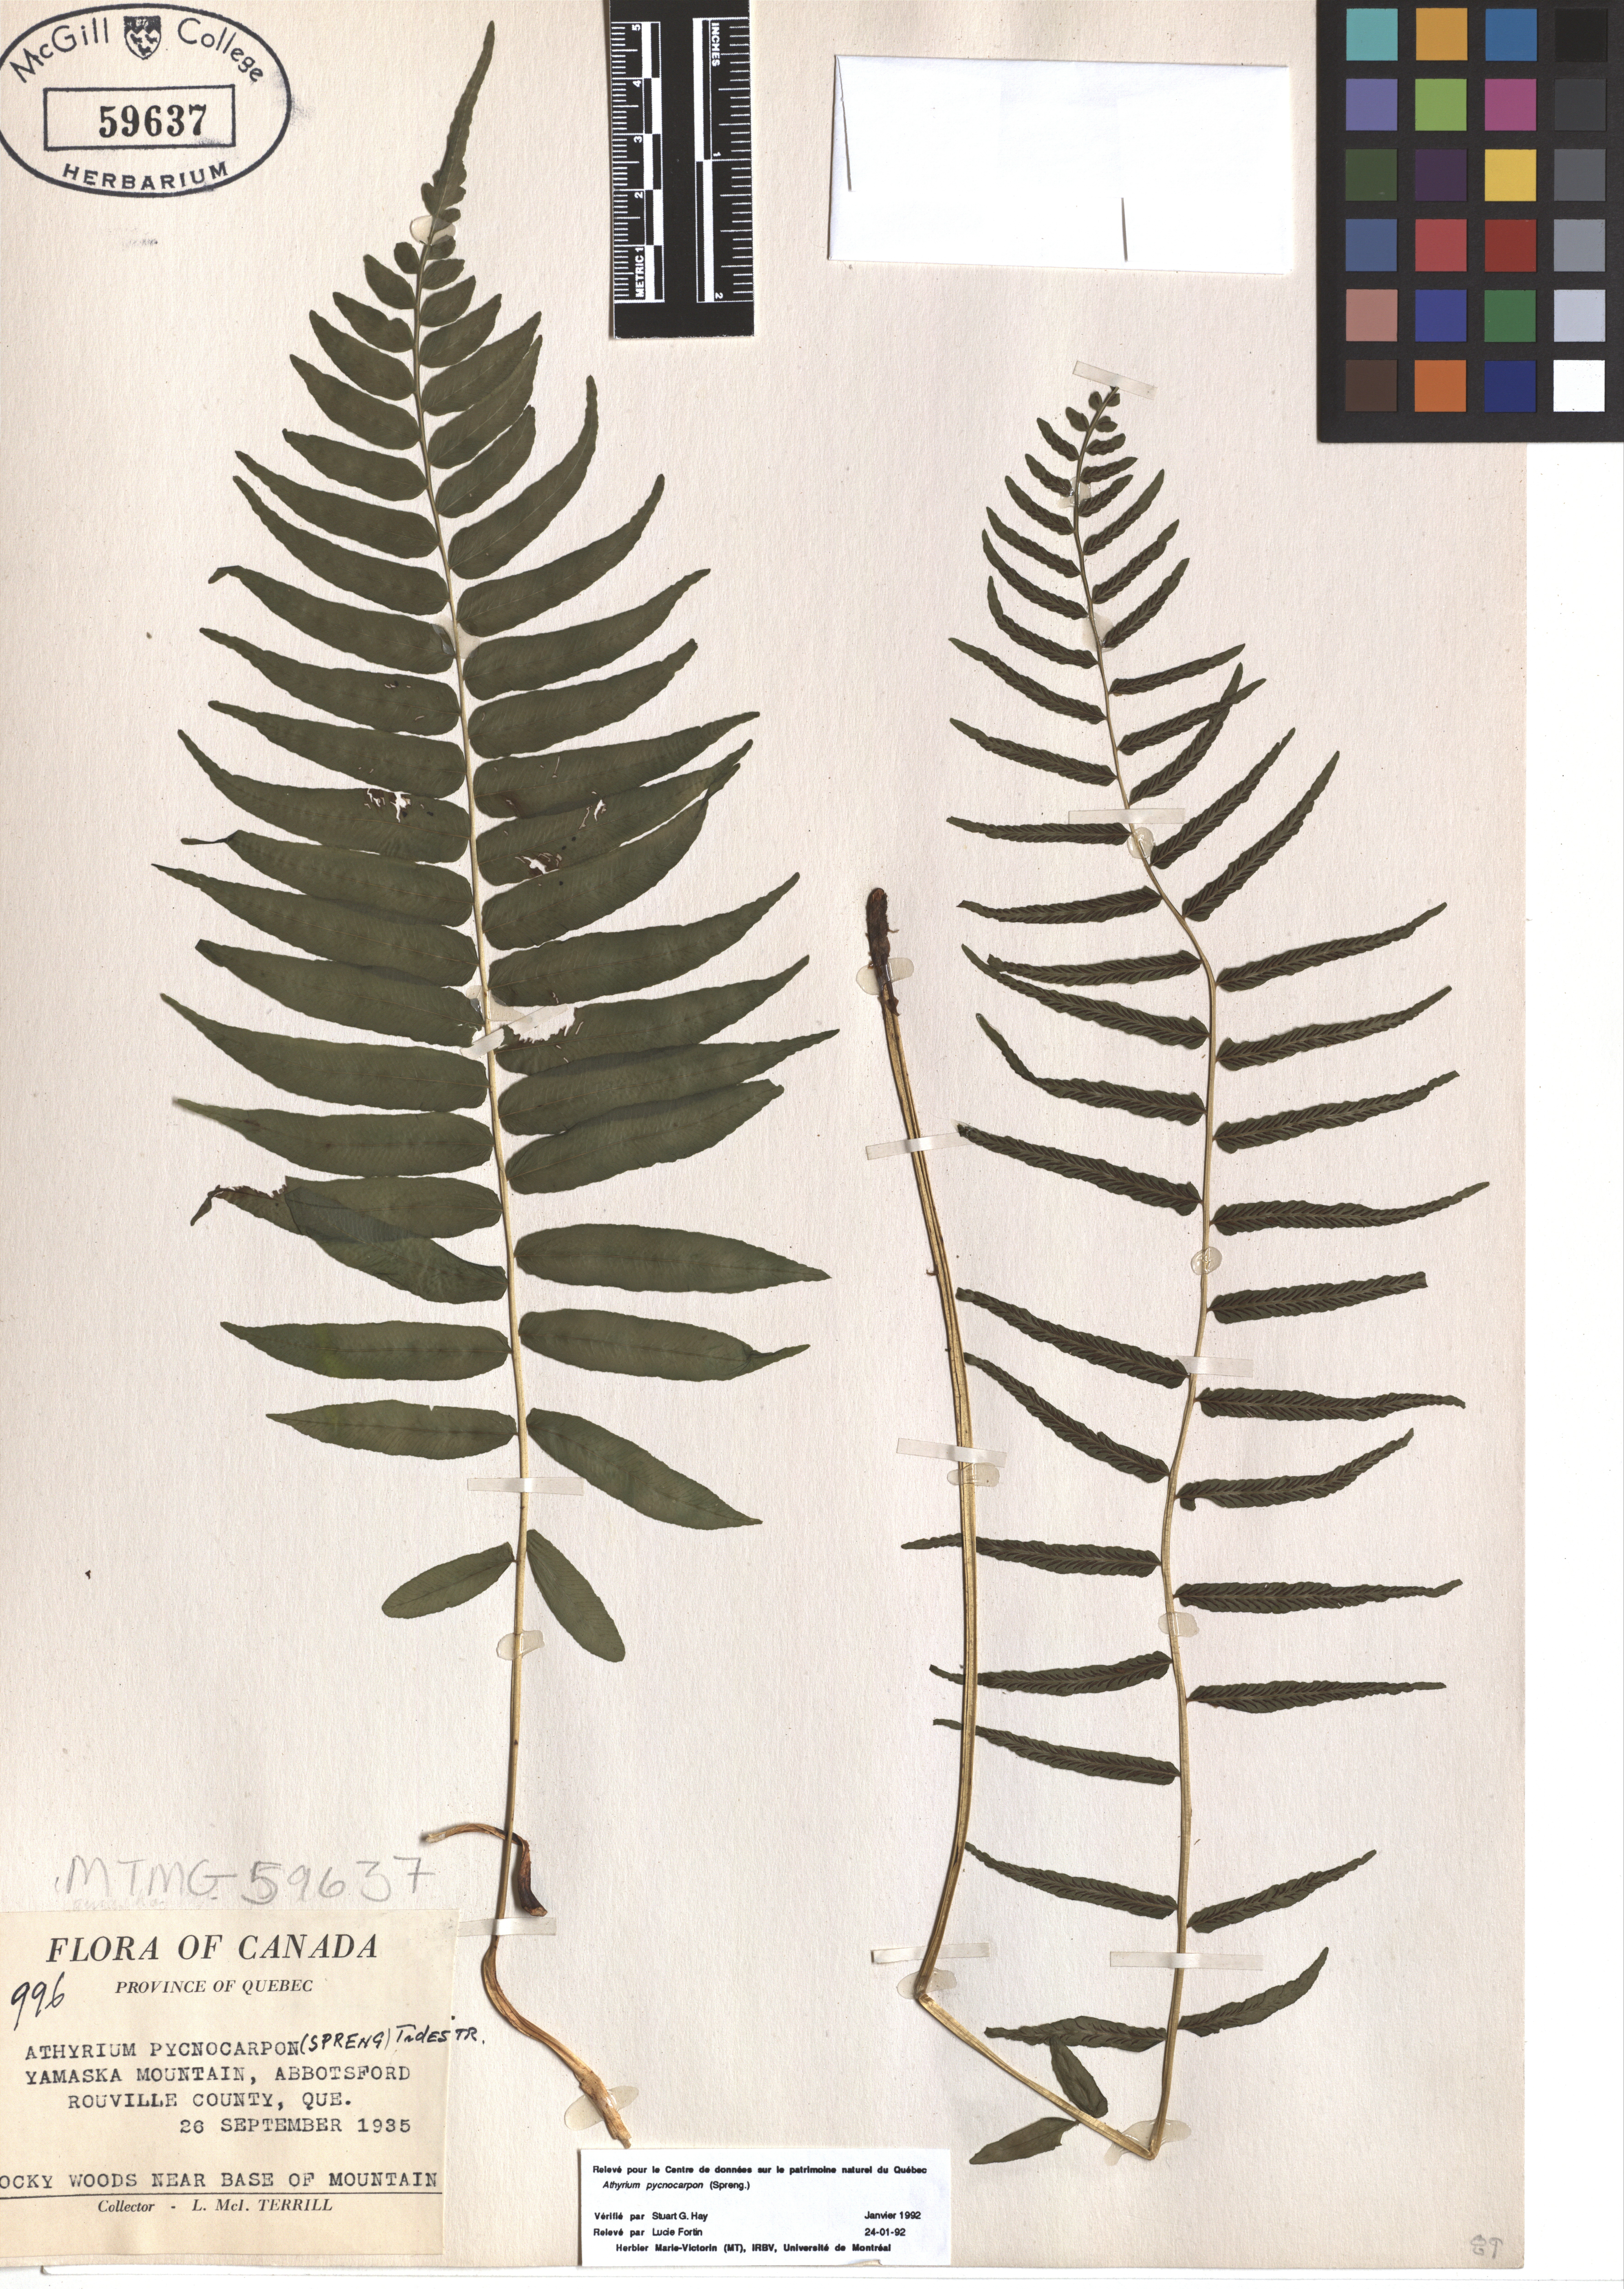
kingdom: Plantae
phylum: Tracheophyta
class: Polypodiopsida
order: Polypodiales
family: Diplaziopsidaceae
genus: Homalosorus
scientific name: Homalosorus pycnocarpos
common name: Glade fern
